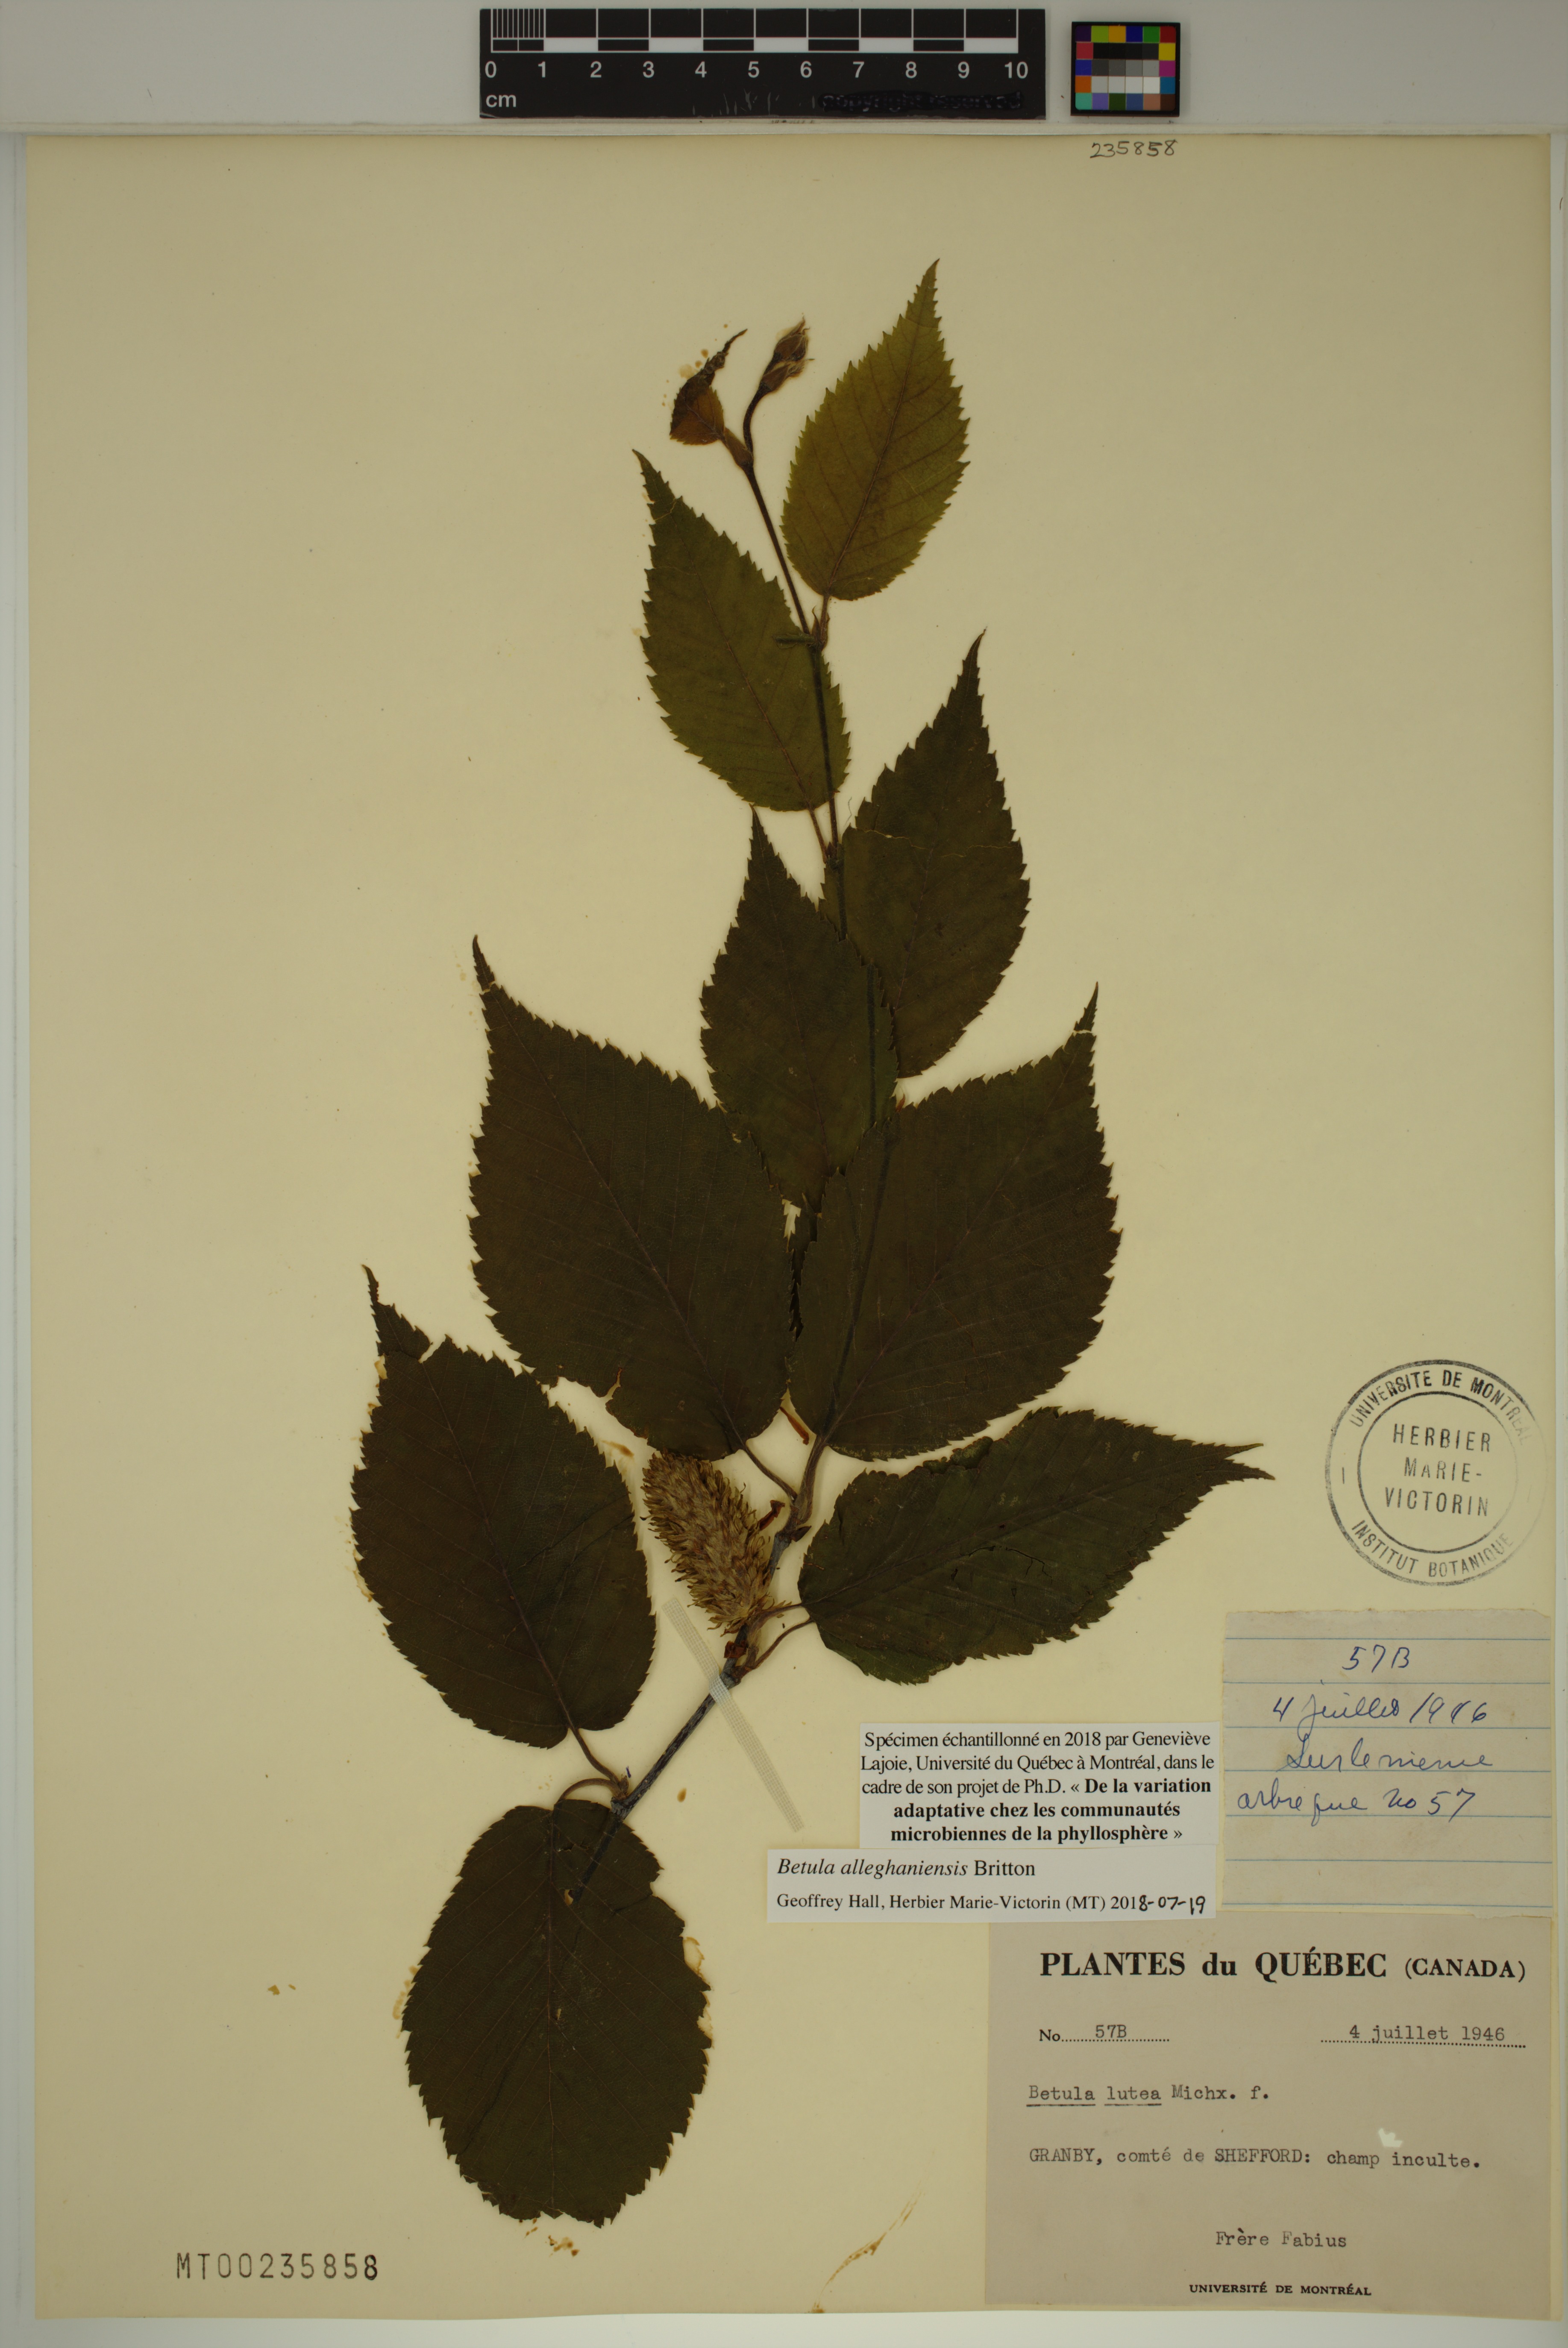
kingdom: Plantae
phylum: Tracheophyta
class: Magnoliopsida
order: Fagales
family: Betulaceae
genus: Betula
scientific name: Betula alleghaniensis
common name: Yellow birch
